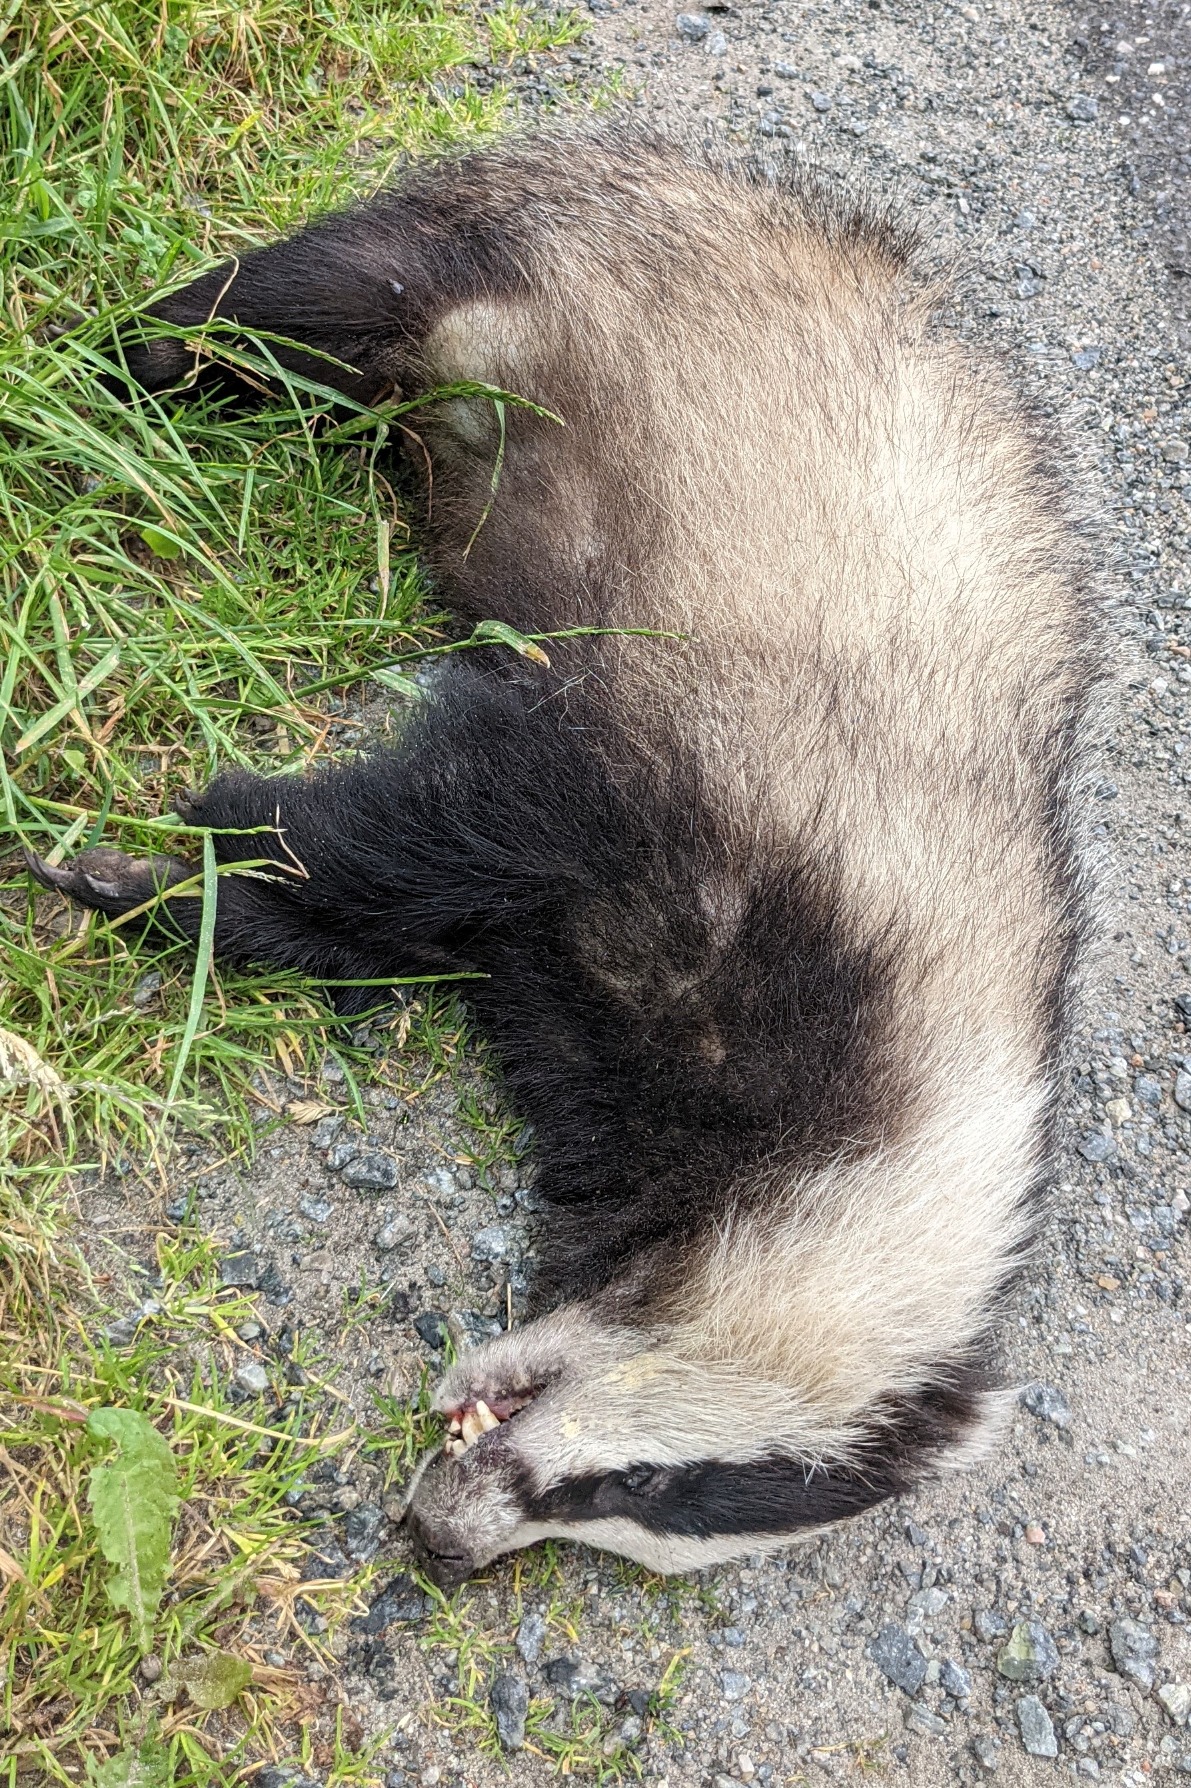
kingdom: Animalia
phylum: Chordata
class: Mammalia
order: Carnivora
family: Mustelidae
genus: Meles
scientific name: Meles meles
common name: Grævling
